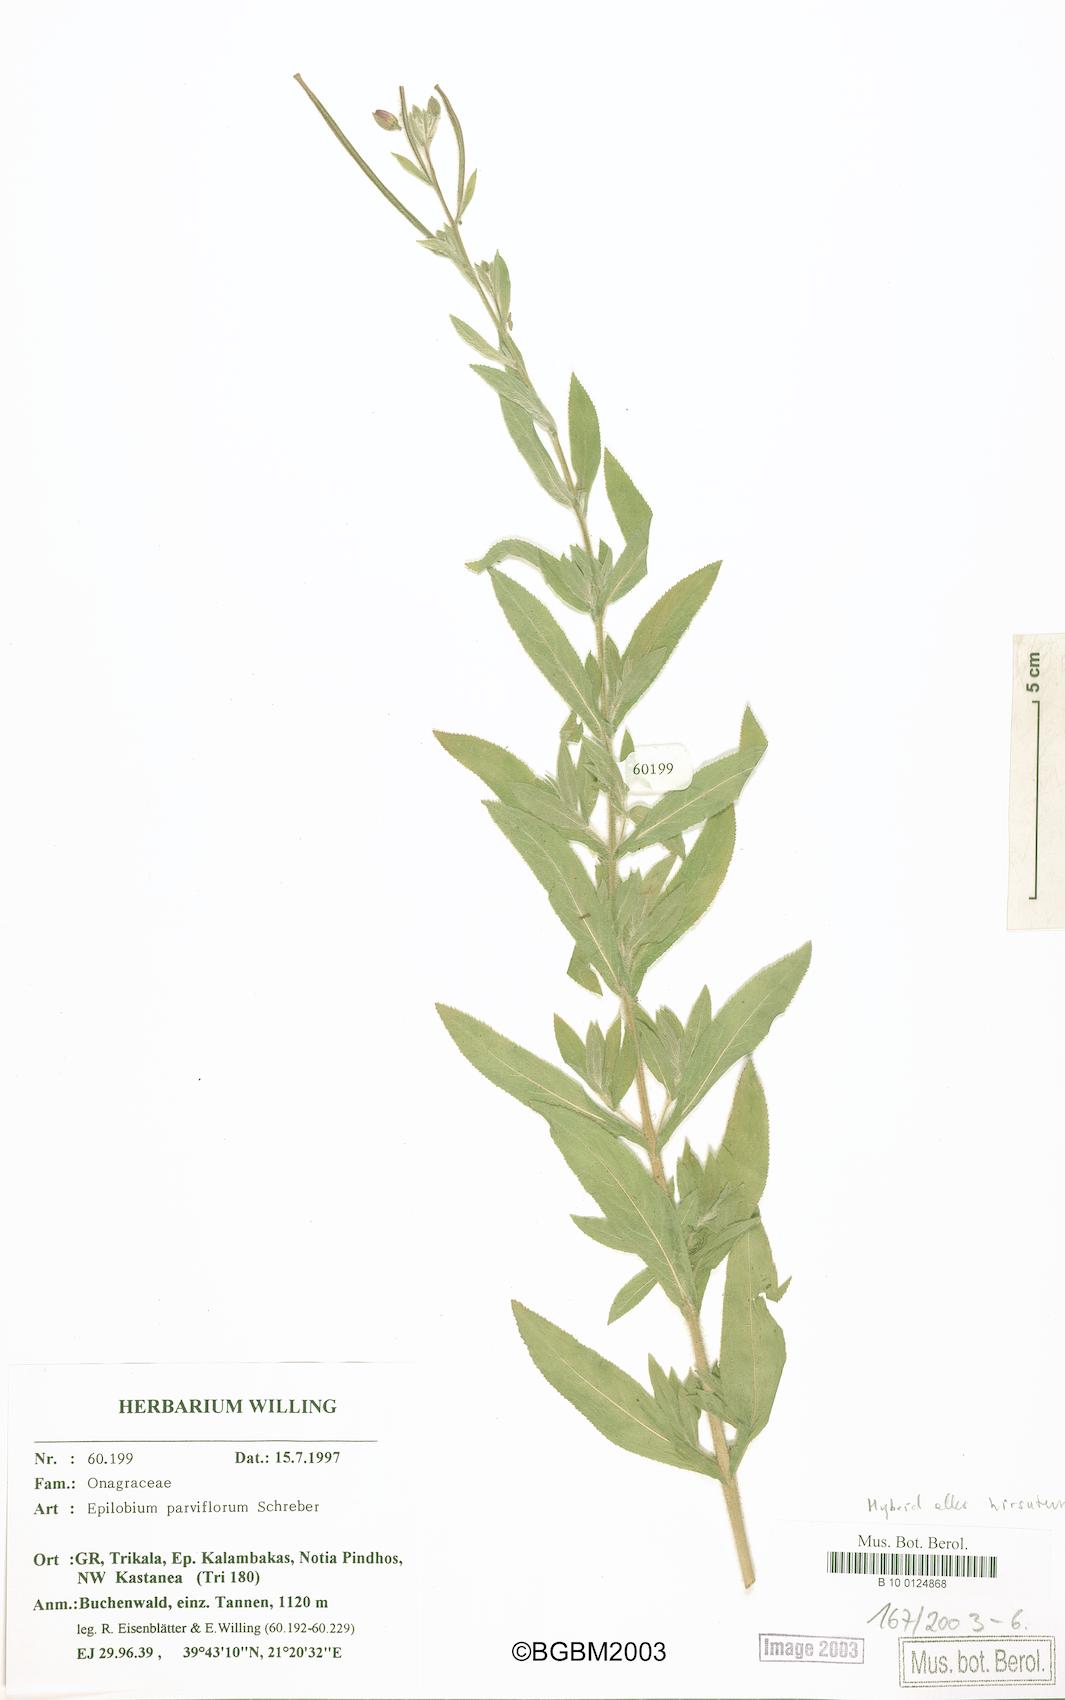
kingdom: Plantae
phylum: Tracheophyta
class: Magnoliopsida
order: Myrtales
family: Onagraceae
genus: Epilobium
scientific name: Epilobium parviflorum
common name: Hoary willowherb
